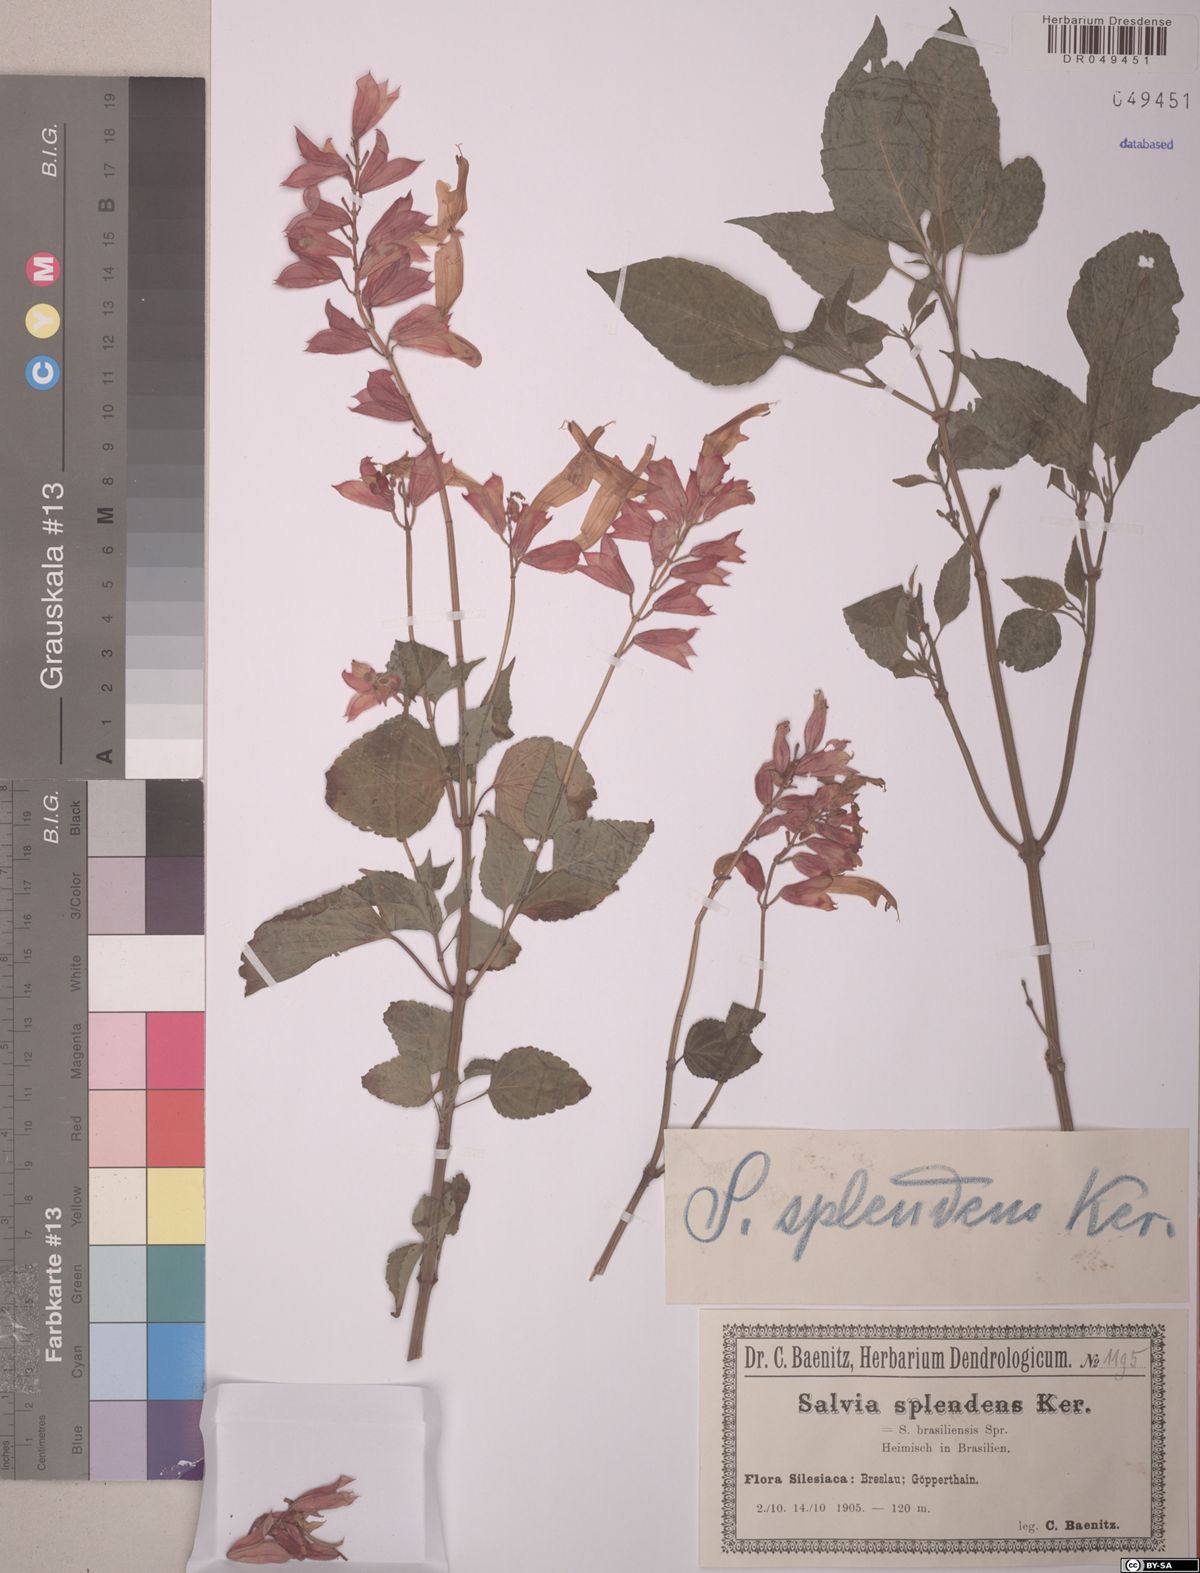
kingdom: Plantae
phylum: Tracheophyta
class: Magnoliopsida
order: Lamiales
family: Lamiaceae
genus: Salvia
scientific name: Salvia splendens
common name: Scarlet sage
